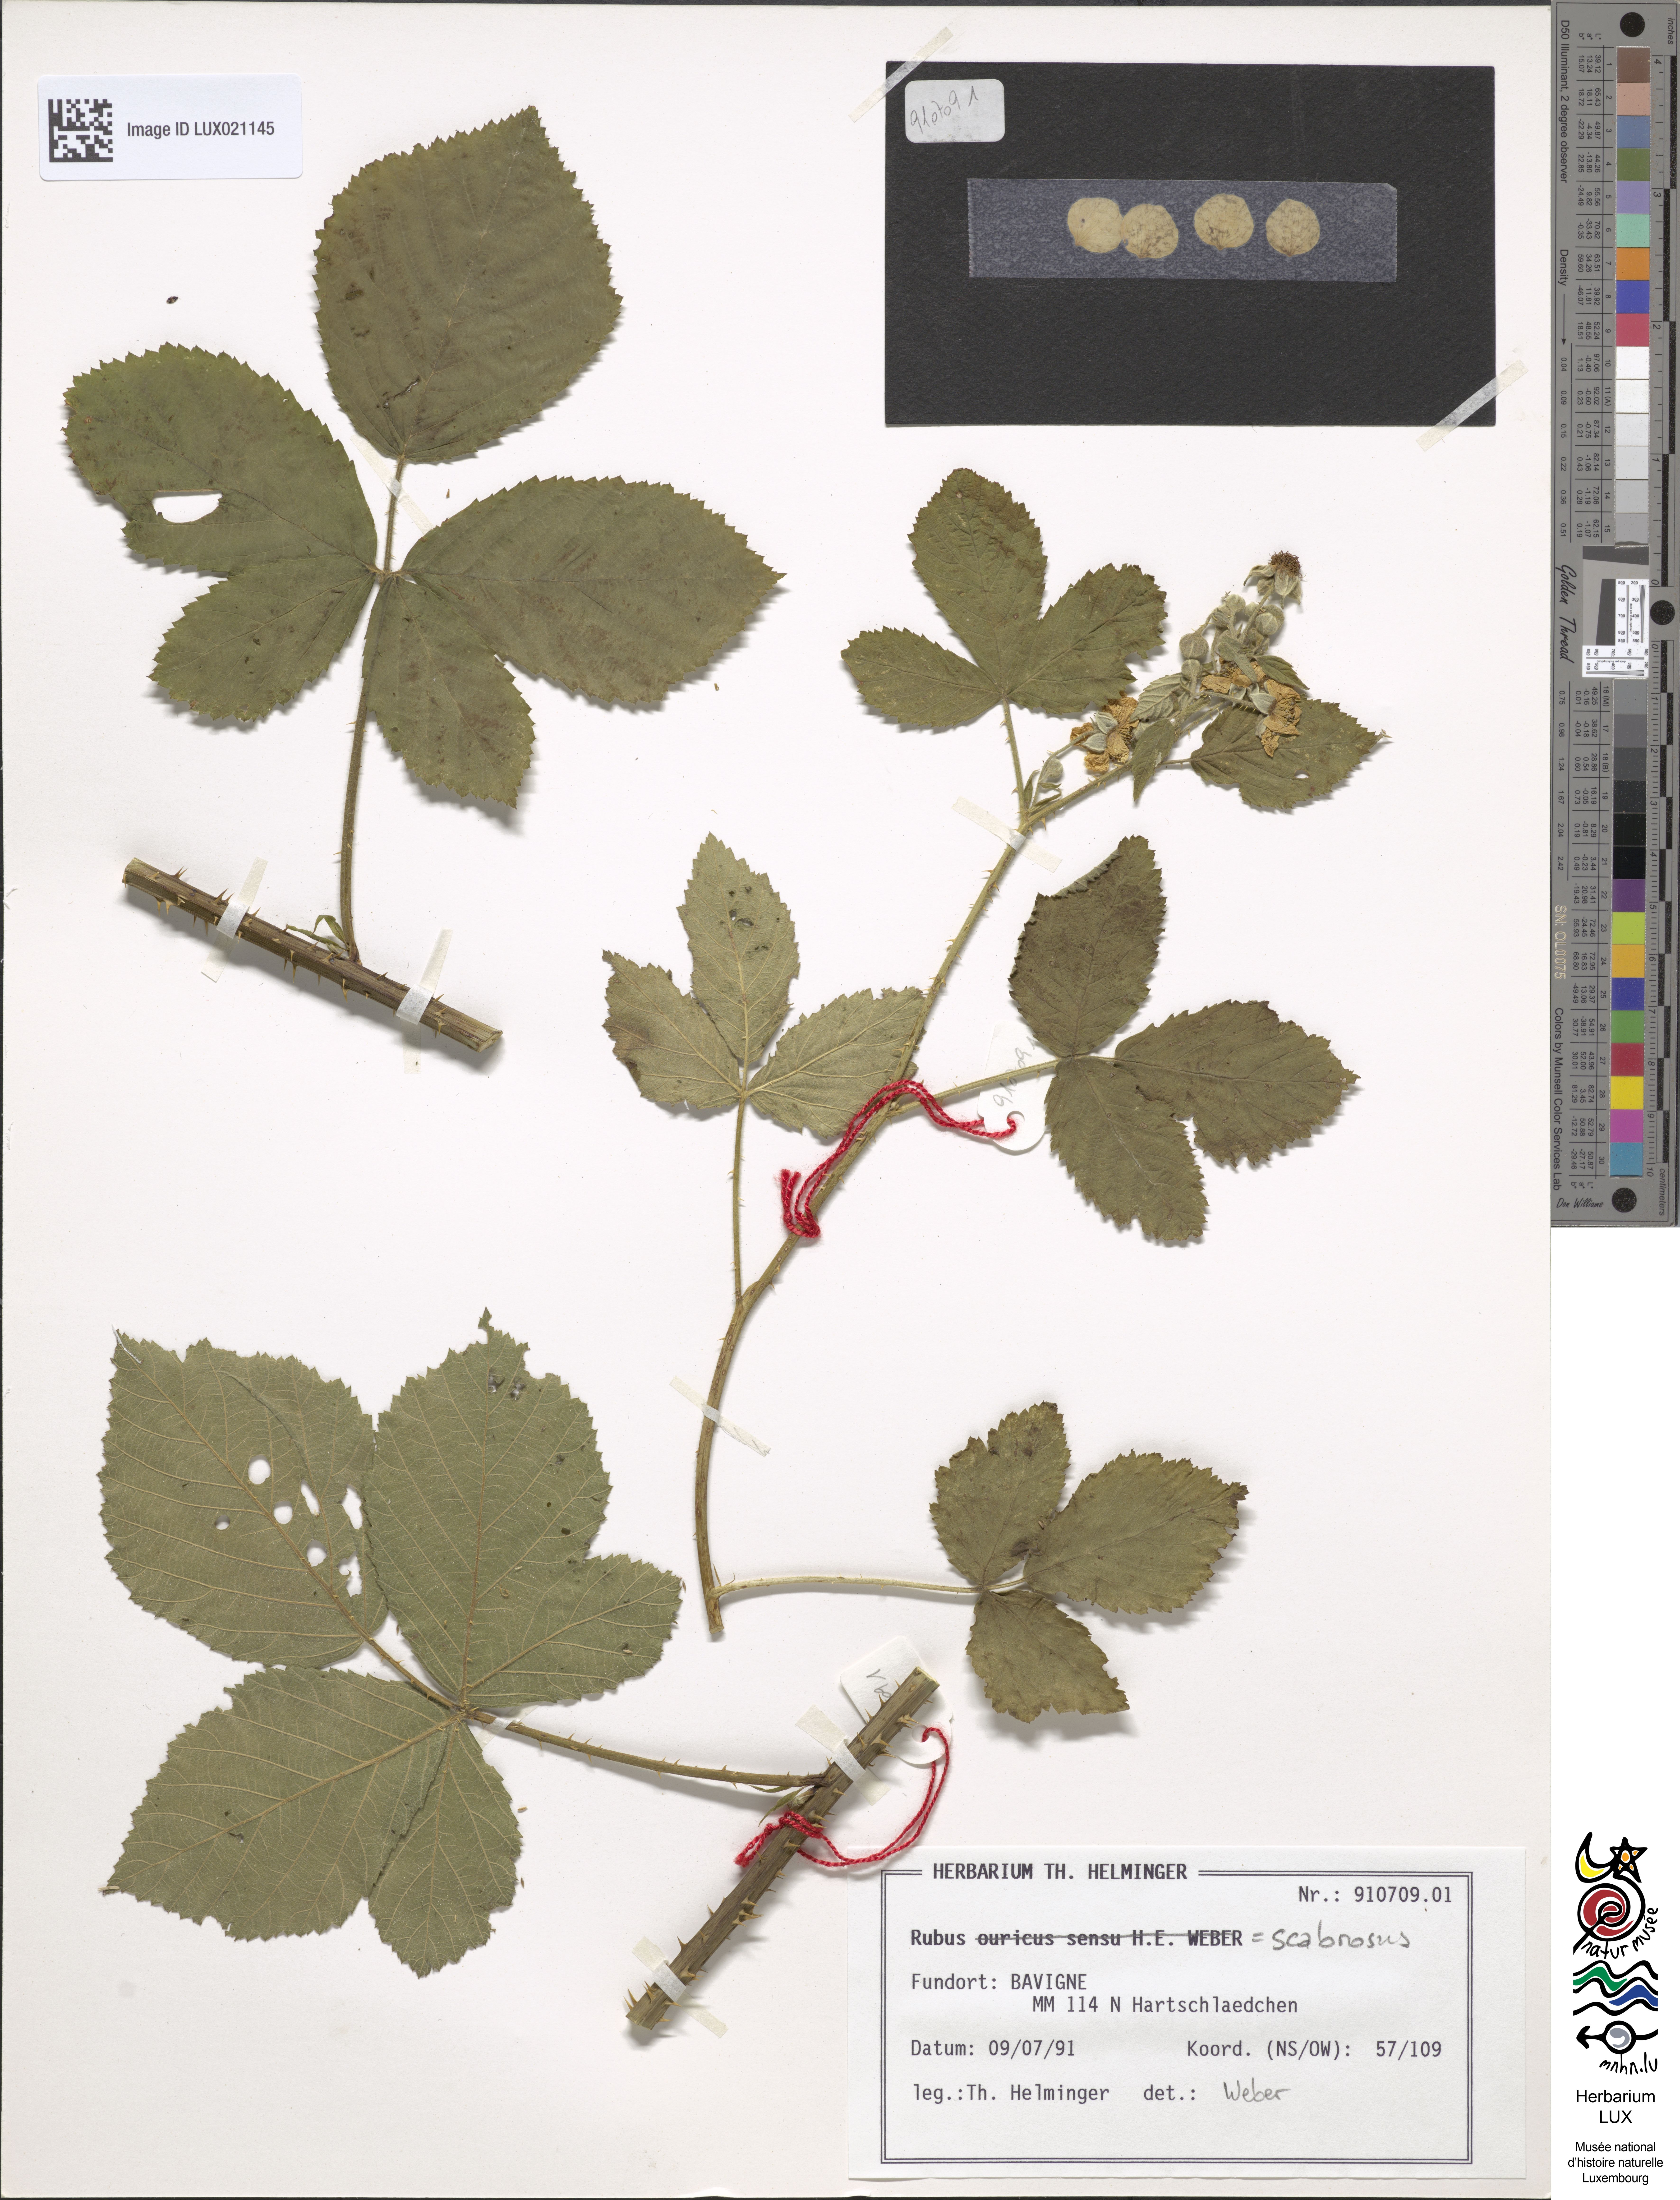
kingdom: Plantae
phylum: Tracheophyta
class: Magnoliopsida
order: Rosales
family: Rosaceae
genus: Rubus
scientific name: Rubus scabrosus
